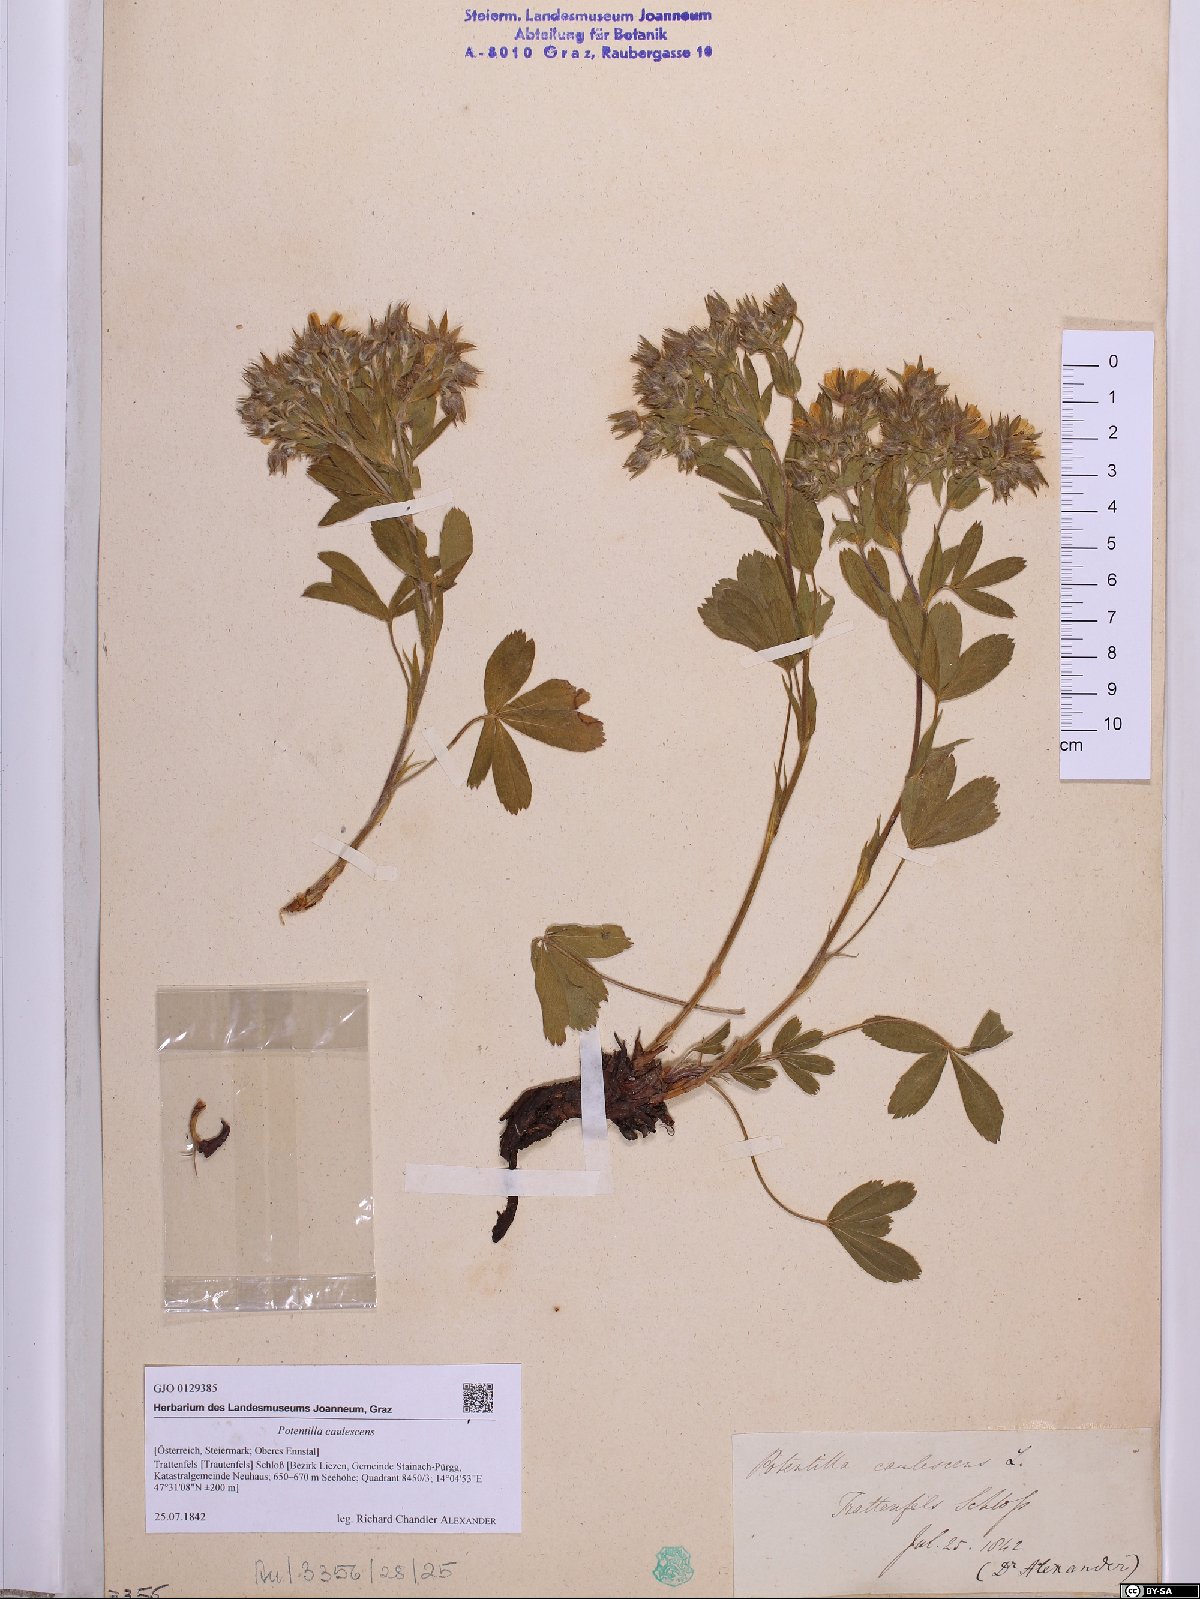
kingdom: Plantae
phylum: Tracheophyta
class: Magnoliopsida
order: Rosales
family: Rosaceae
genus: Potentilla
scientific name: Potentilla caulescens
